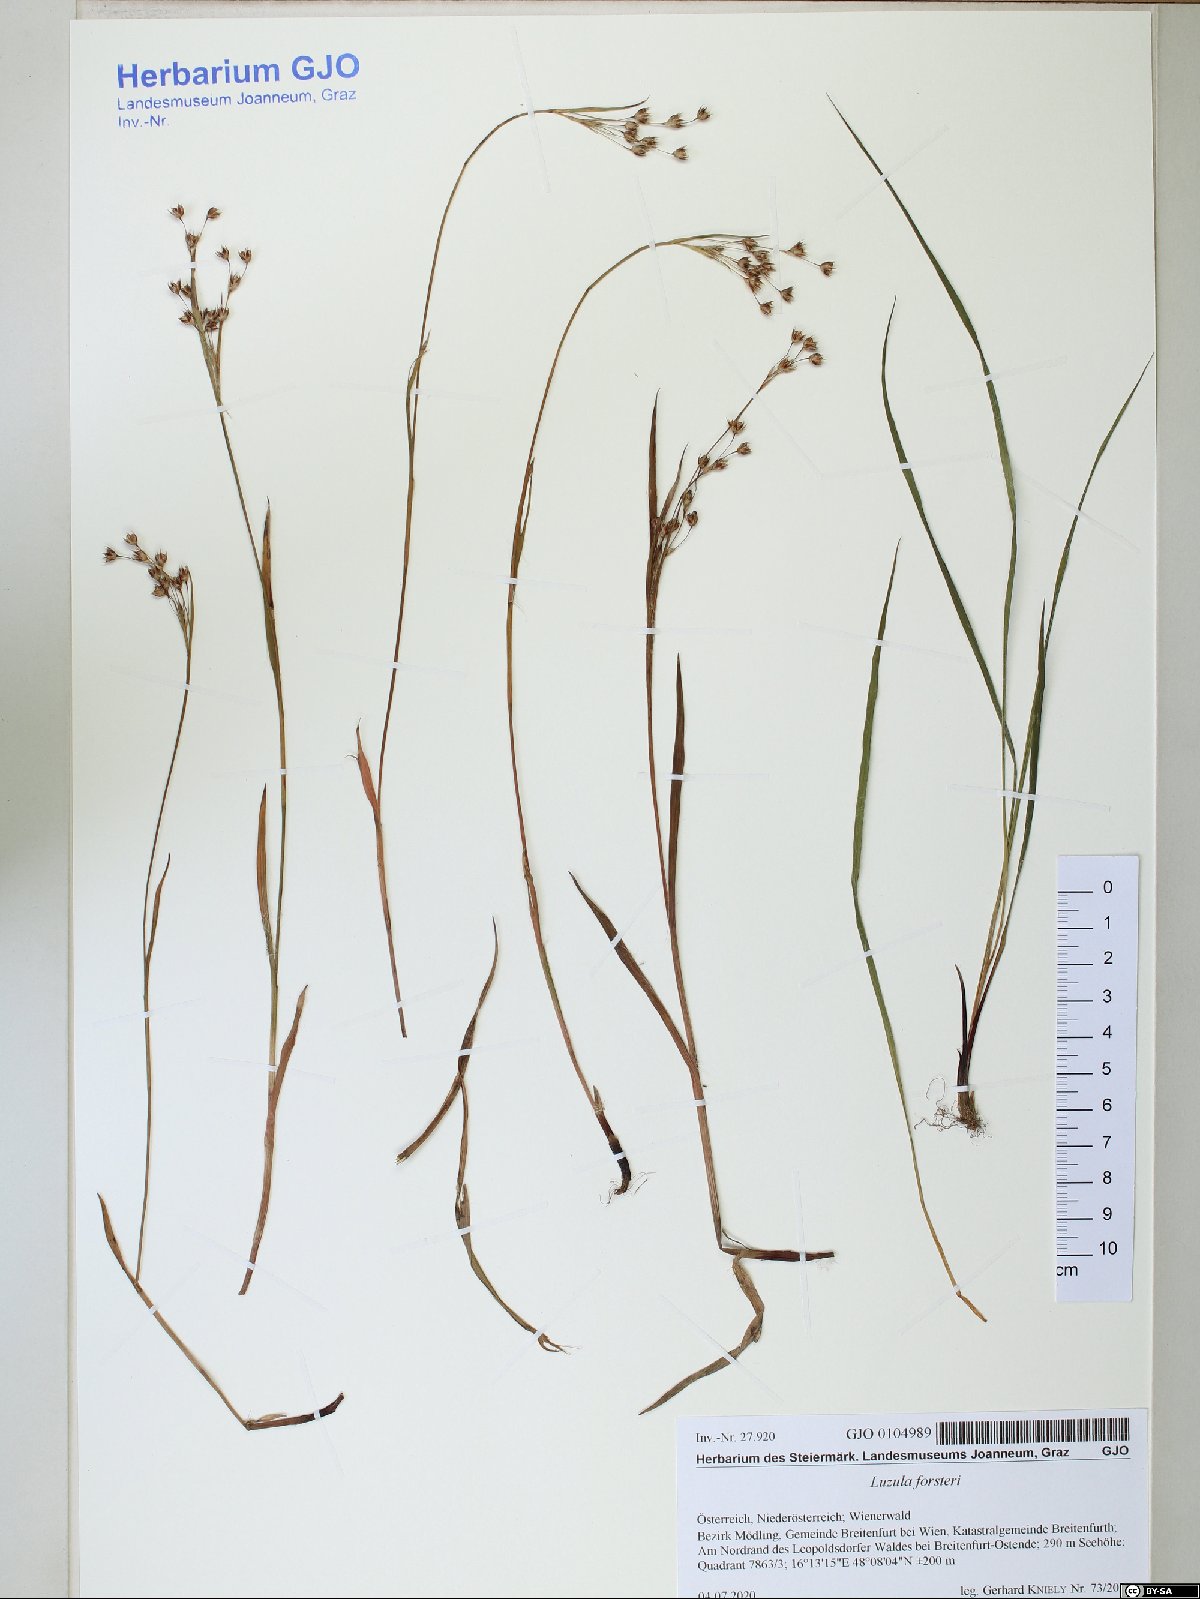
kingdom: Plantae
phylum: Tracheophyta
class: Liliopsida
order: Poales
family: Juncaceae
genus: Luzula
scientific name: Luzula forsteri
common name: Southern wood-rush
